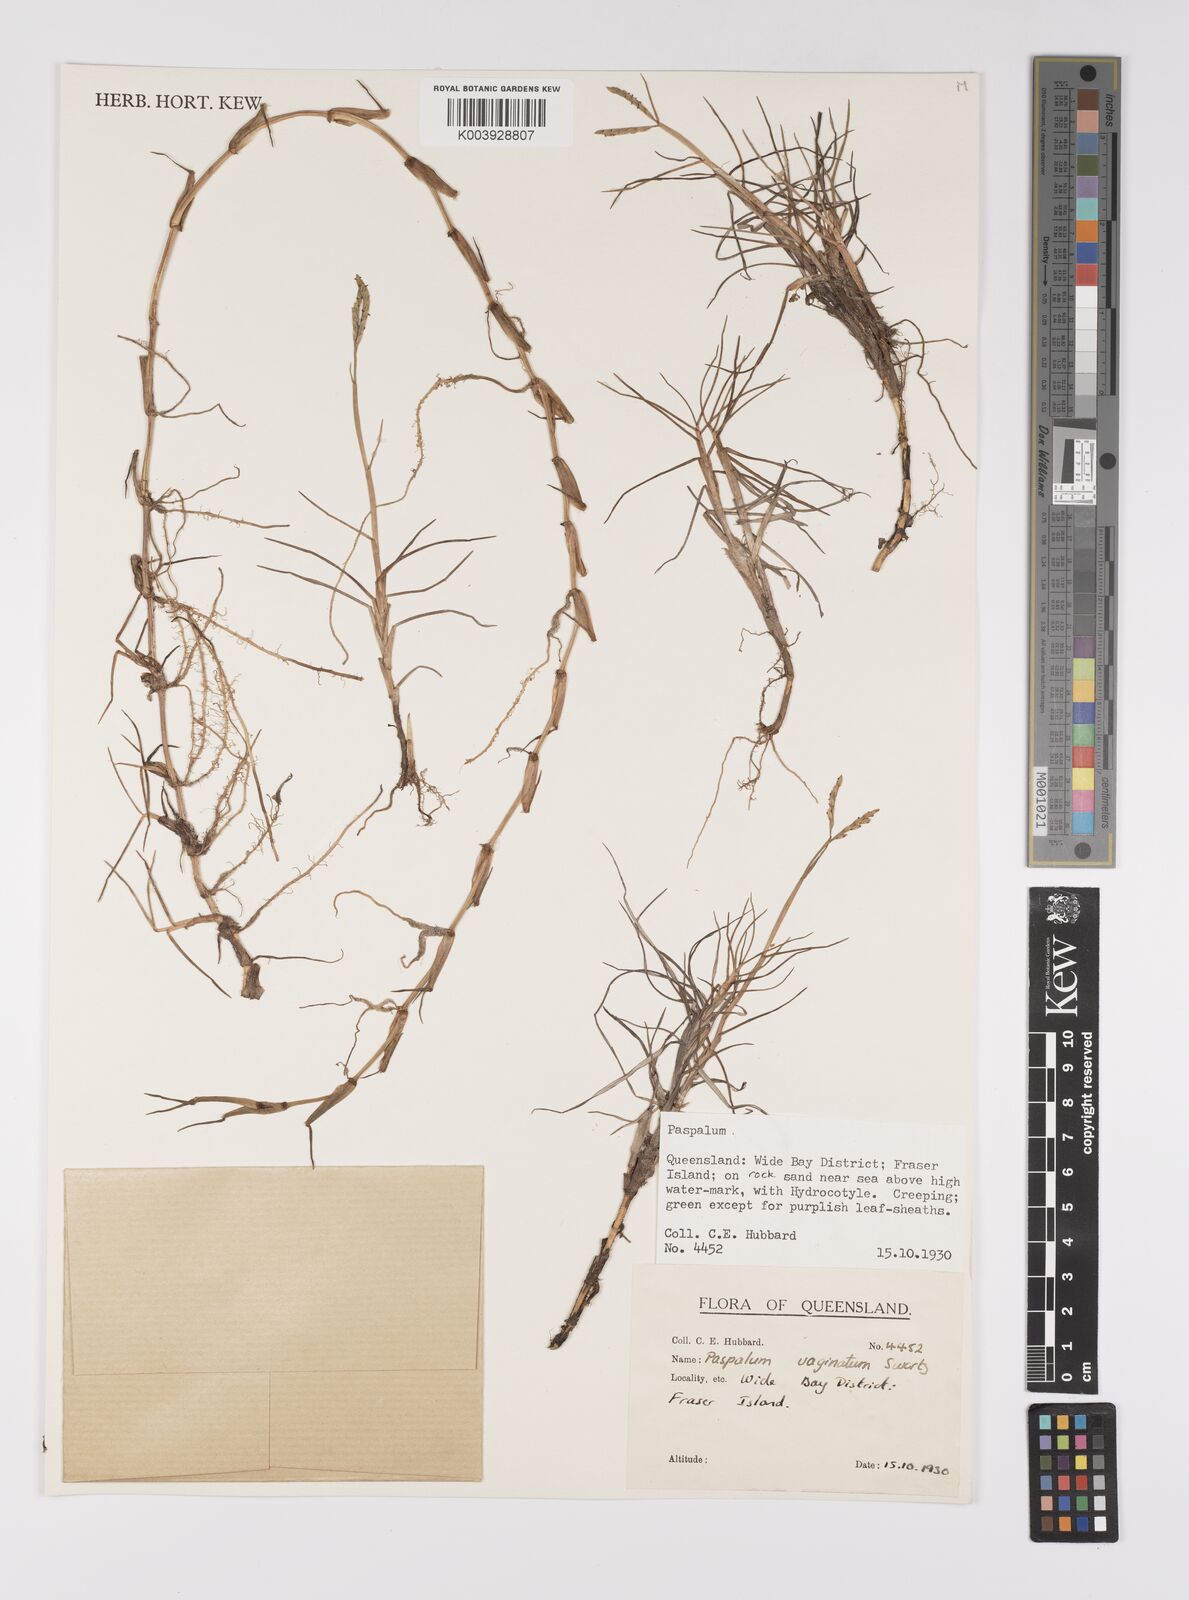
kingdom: Plantae
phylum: Tracheophyta
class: Liliopsida
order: Poales
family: Poaceae
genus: Paspalum
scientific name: Paspalum vaginatum
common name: Seashore paspalum
